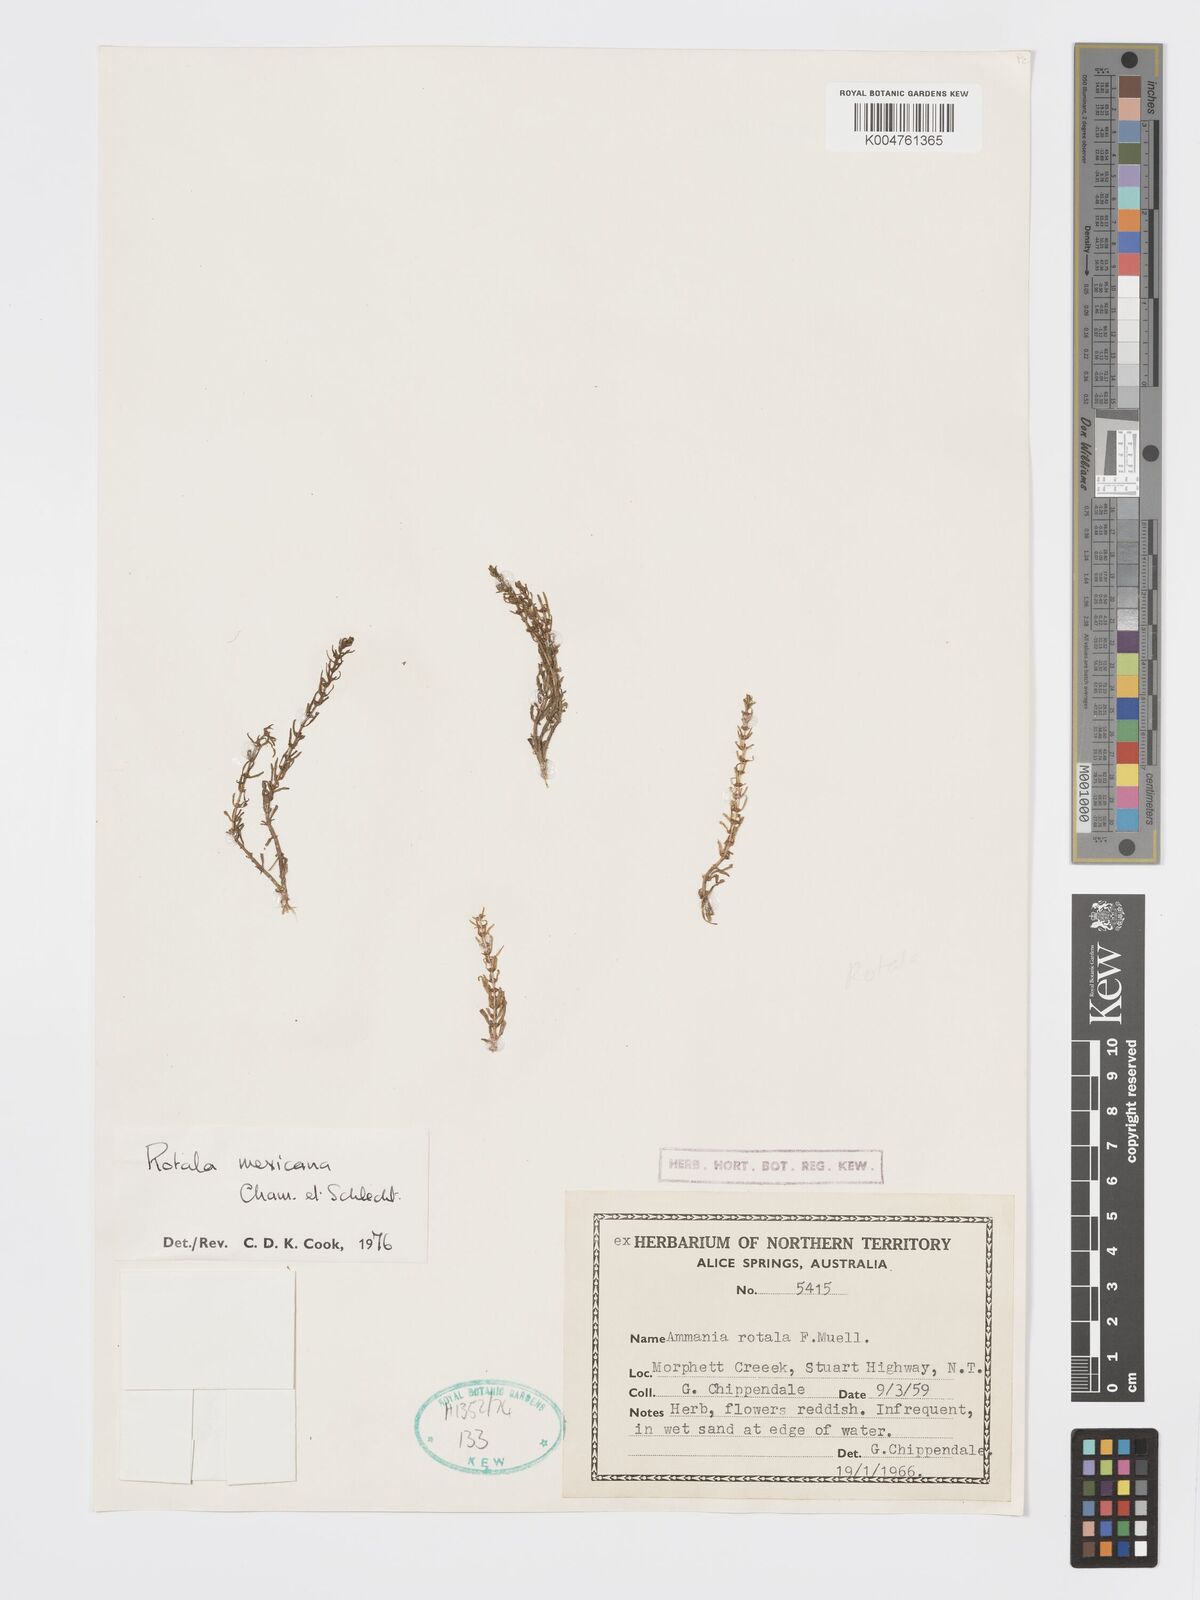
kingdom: Plantae
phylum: Tracheophyta
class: Magnoliopsida
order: Myrtales
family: Lythraceae
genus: Rotala
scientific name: Rotala mexicana
